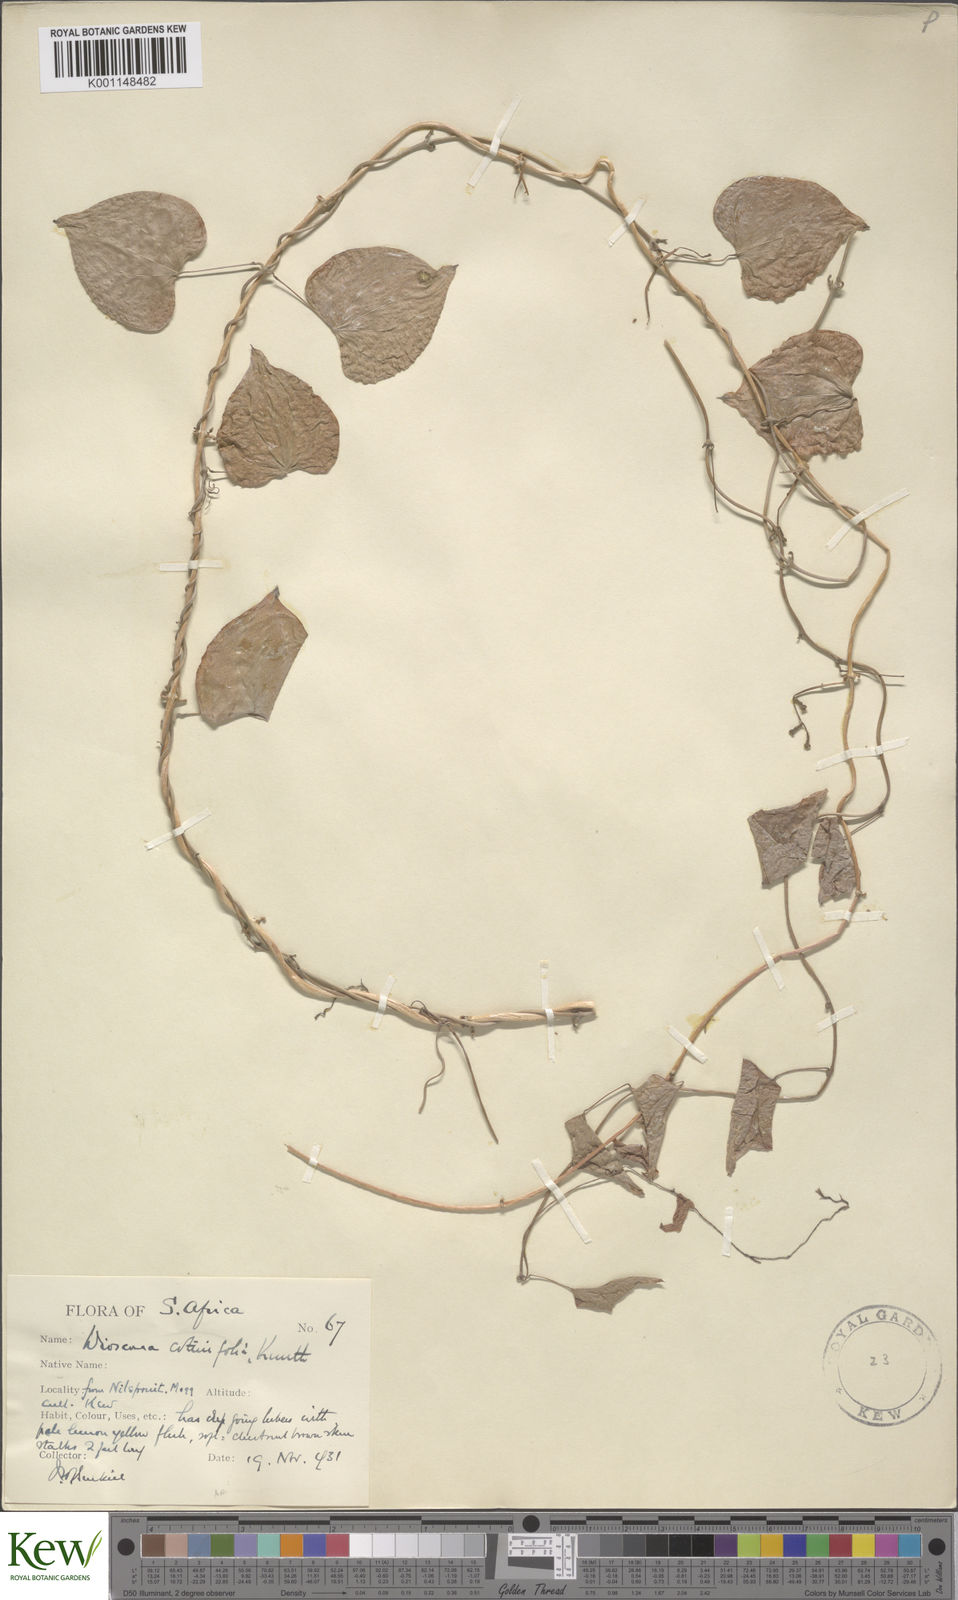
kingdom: Plantae
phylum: Tracheophyta
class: Liliopsida
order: Dioscoreales
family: Dioscoreaceae
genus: Dioscorea
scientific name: Dioscorea cotinifolia
